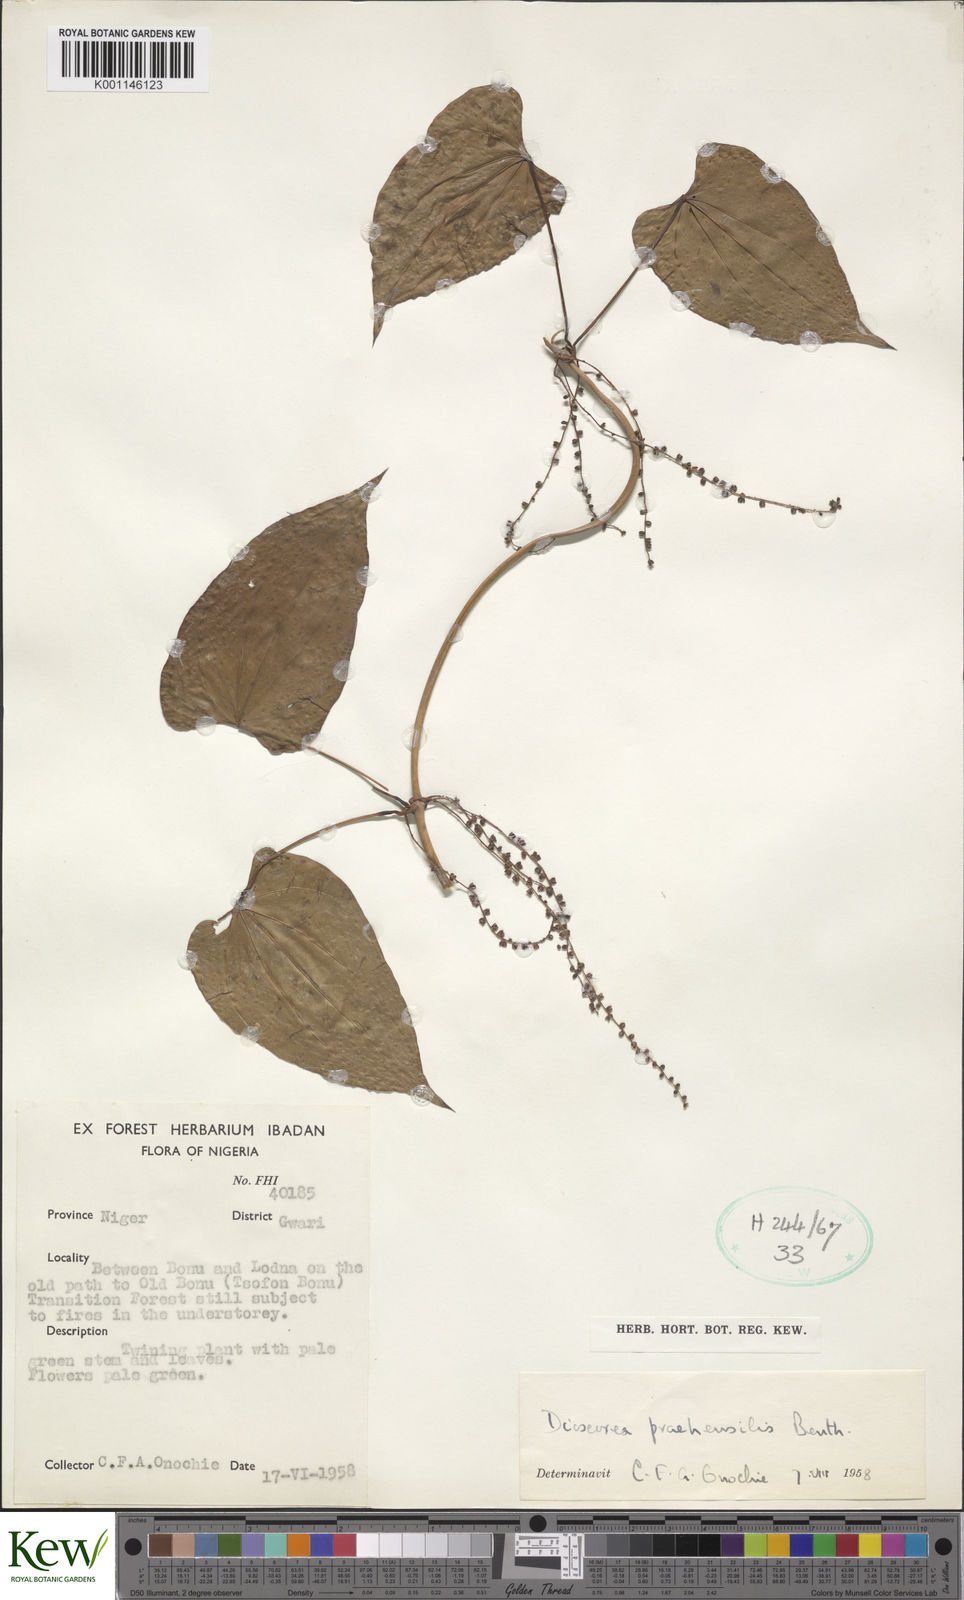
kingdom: Plantae
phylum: Tracheophyta
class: Liliopsida
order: Dioscoreales
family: Dioscoreaceae
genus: Dioscorea
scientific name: Dioscorea
